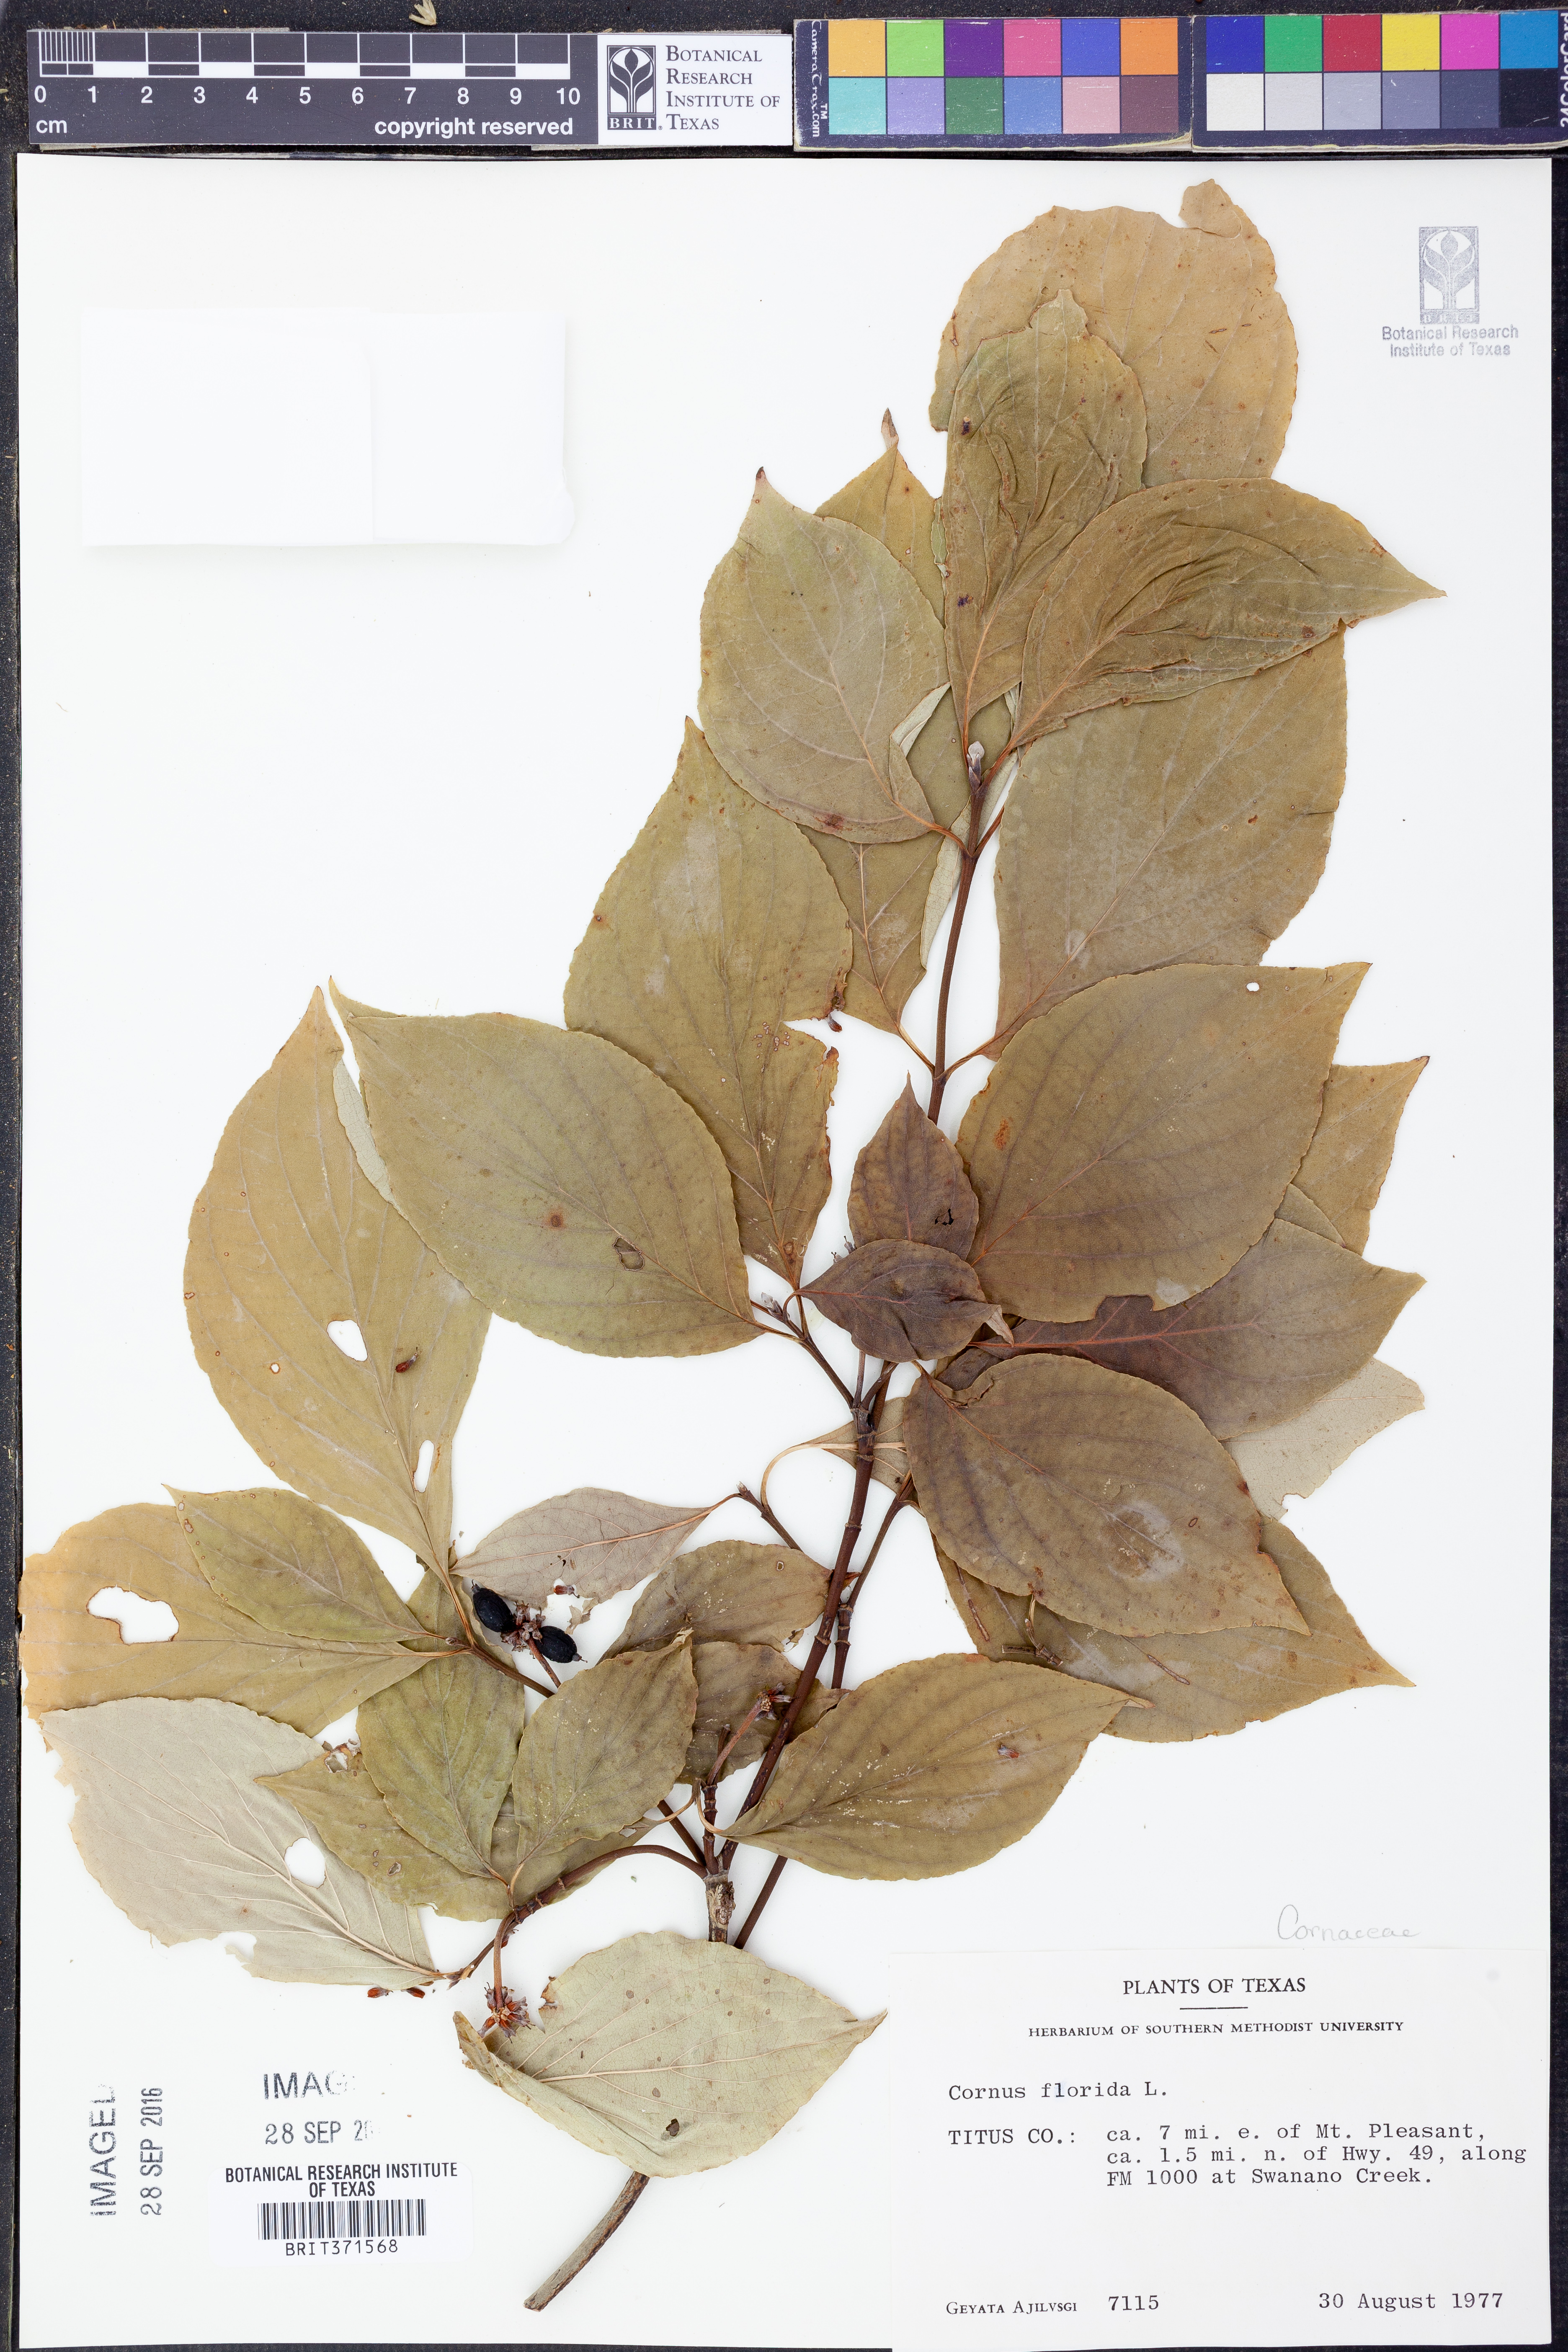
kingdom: Plantae
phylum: Tracheophyta
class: Magnoliopsida
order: Cornales
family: Cornaceae
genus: Cornus
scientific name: Cornus florida
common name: Flowering dogwood
